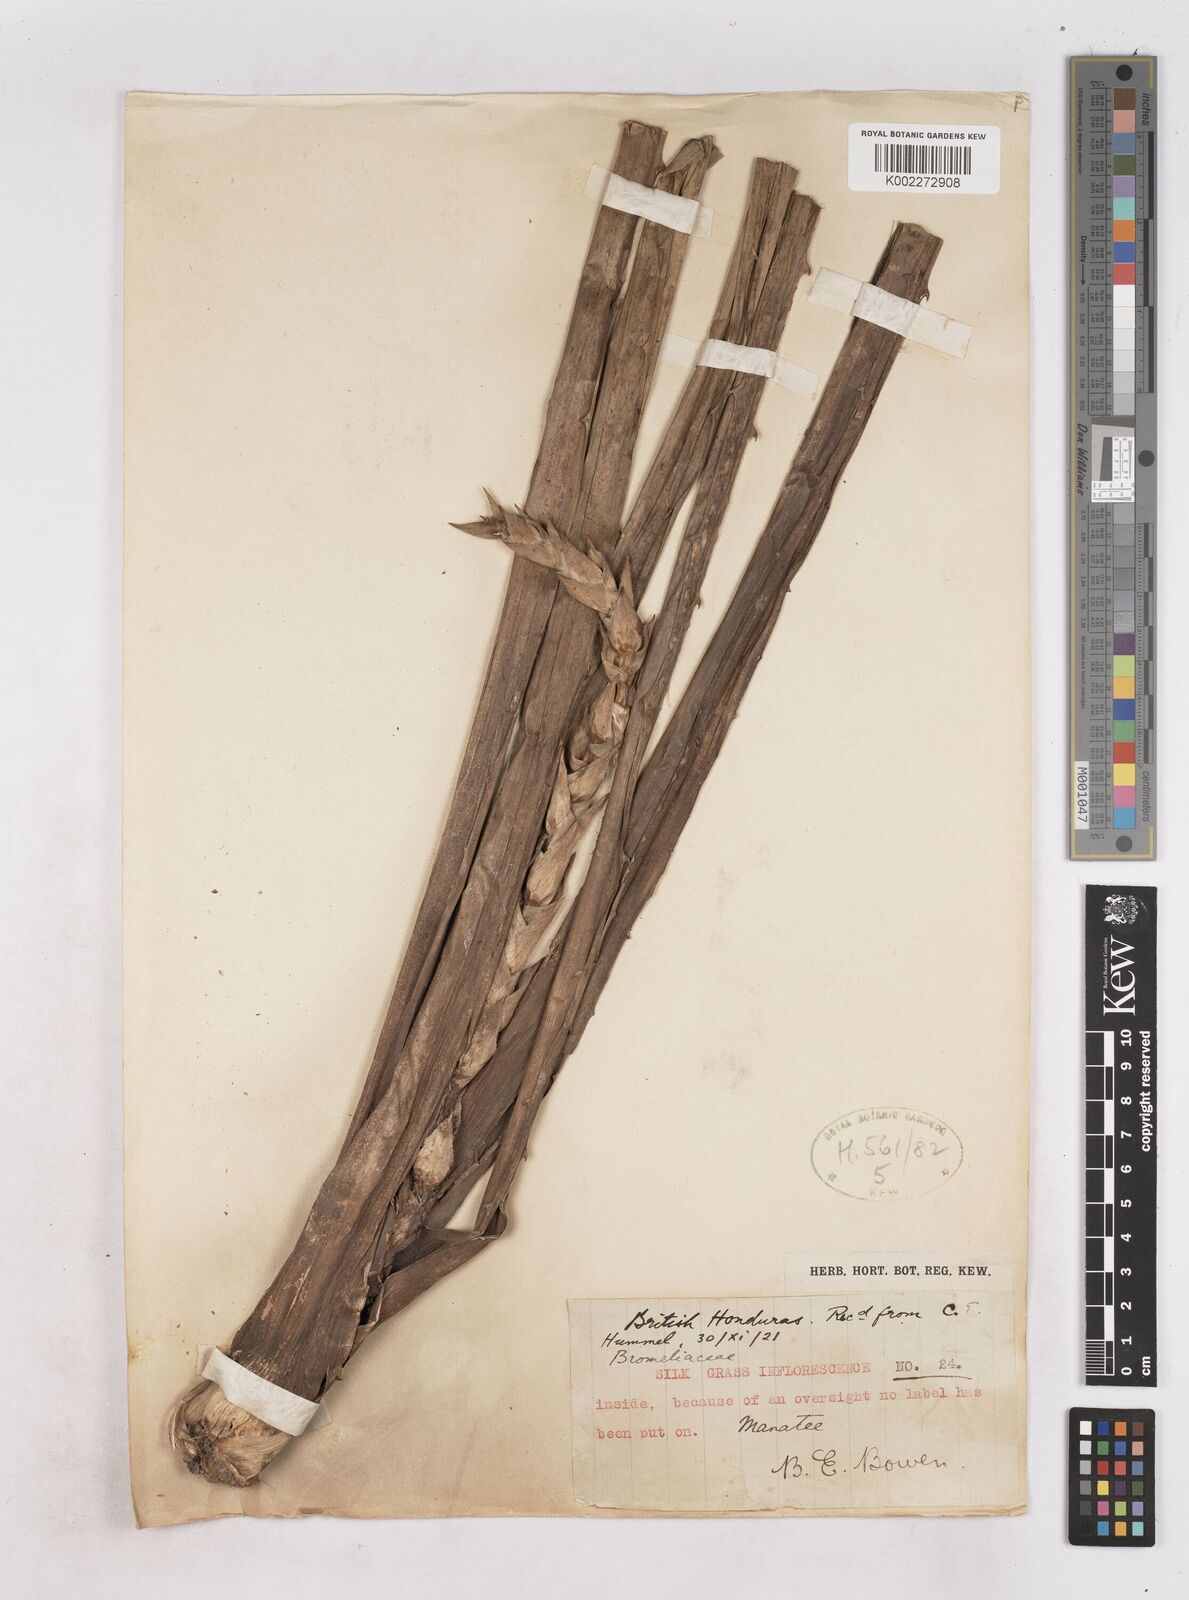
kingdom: Plantae
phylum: Tracheophyta
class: Liliopsida
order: Poales
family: Bromeliaceae
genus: Tillandsia
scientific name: Tillandsia
